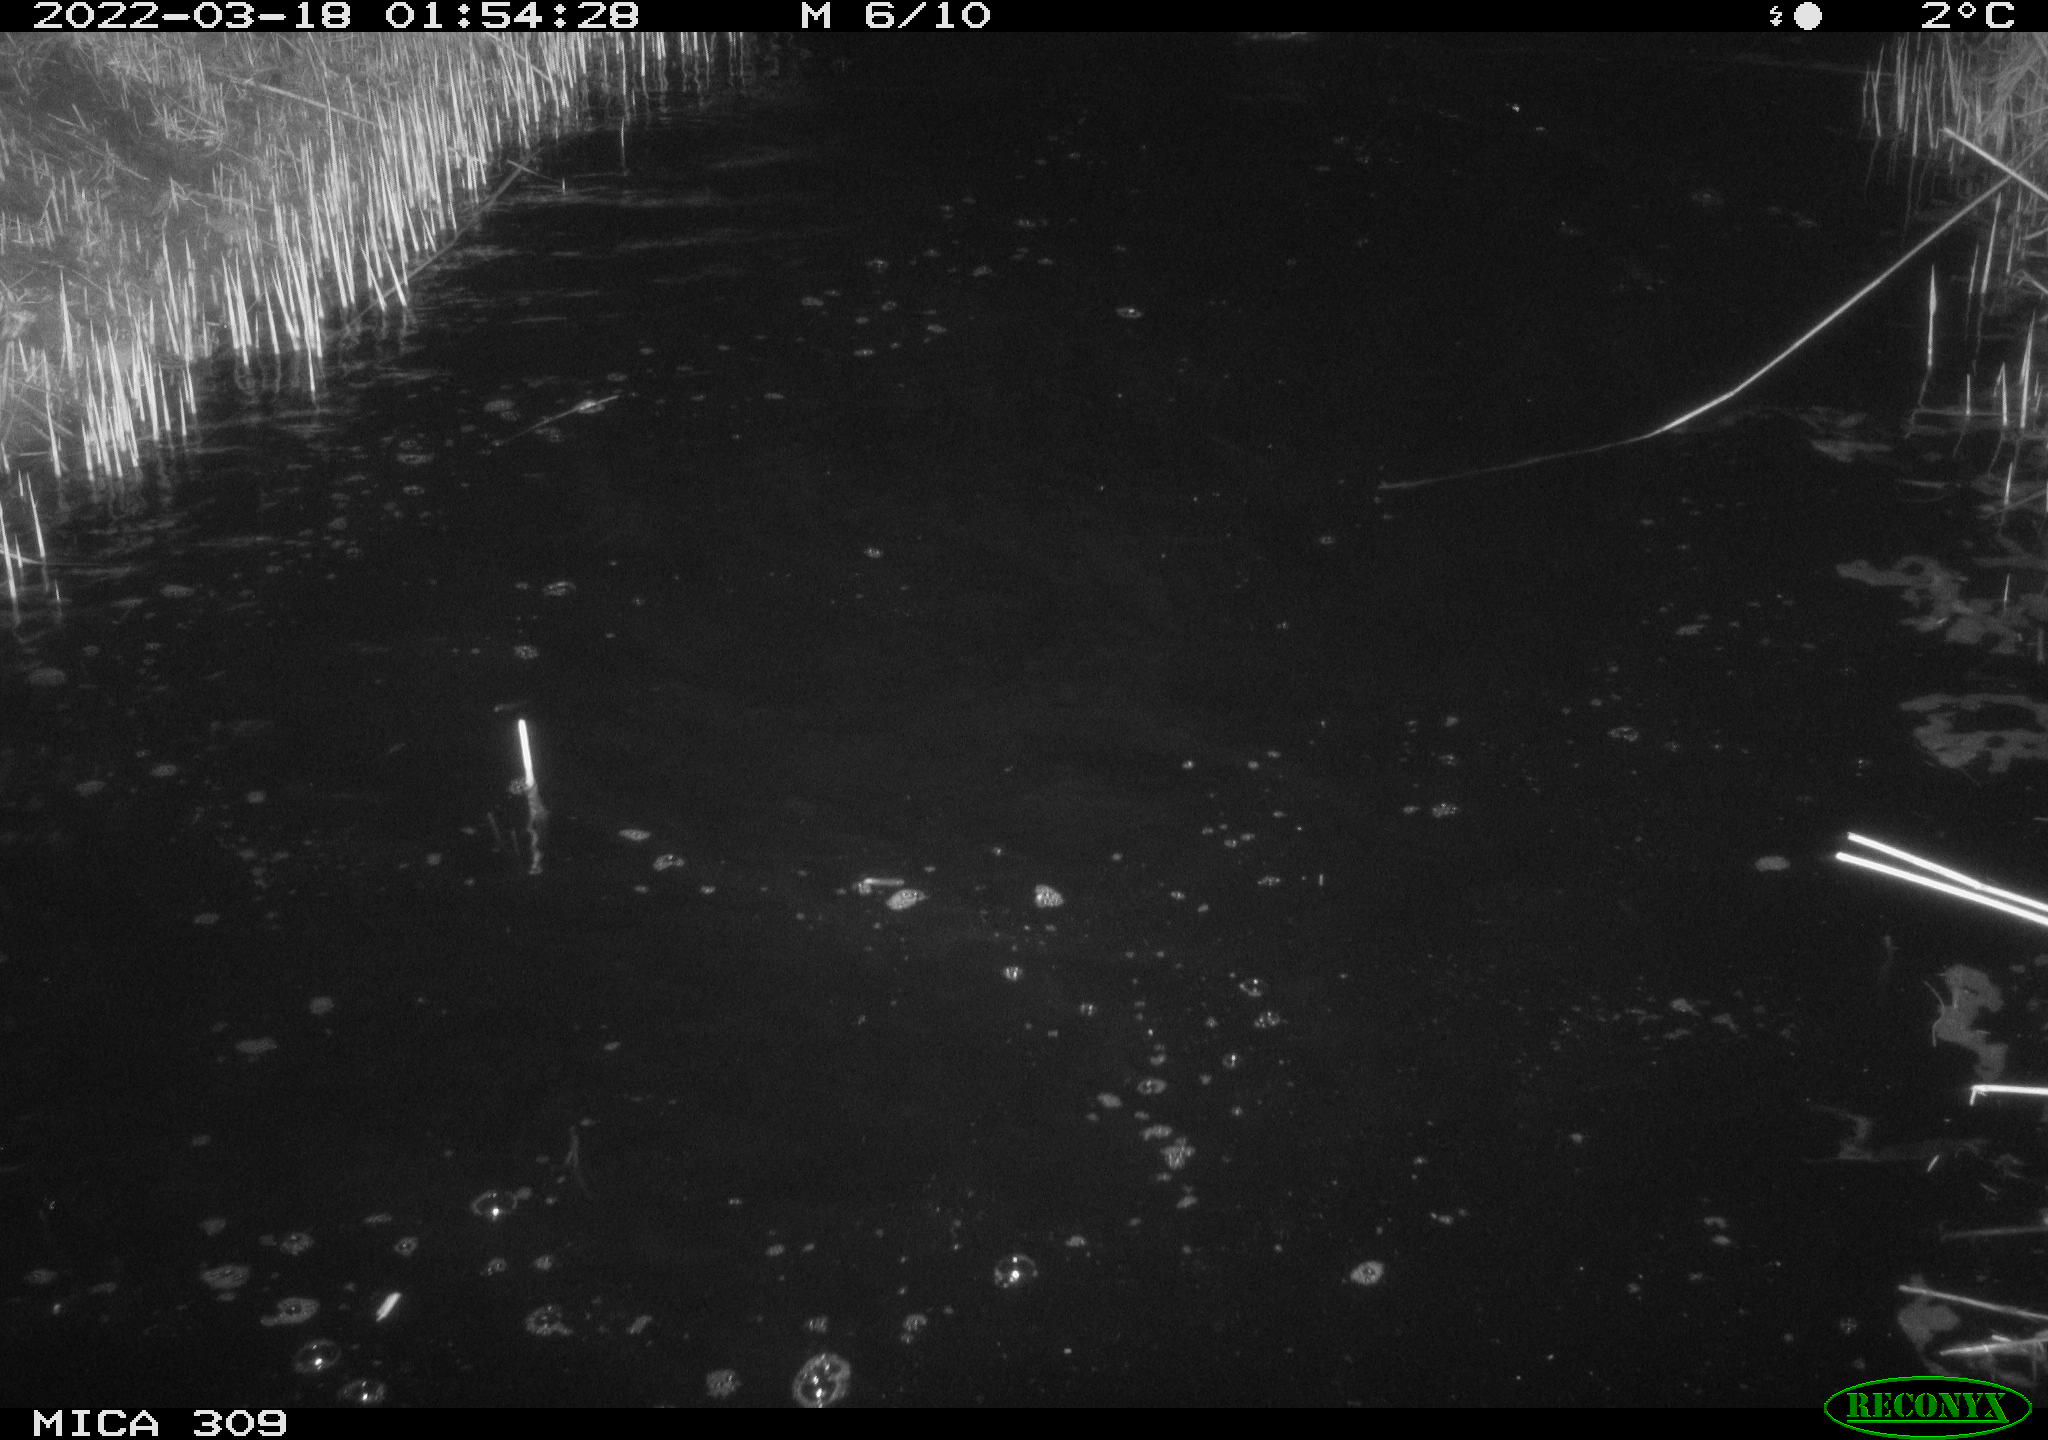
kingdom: Animalia
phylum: Chordata
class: Aves
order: Anseriformes
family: Anatidae
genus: Anas
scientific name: Anas platyrhynchos
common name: Mallard
